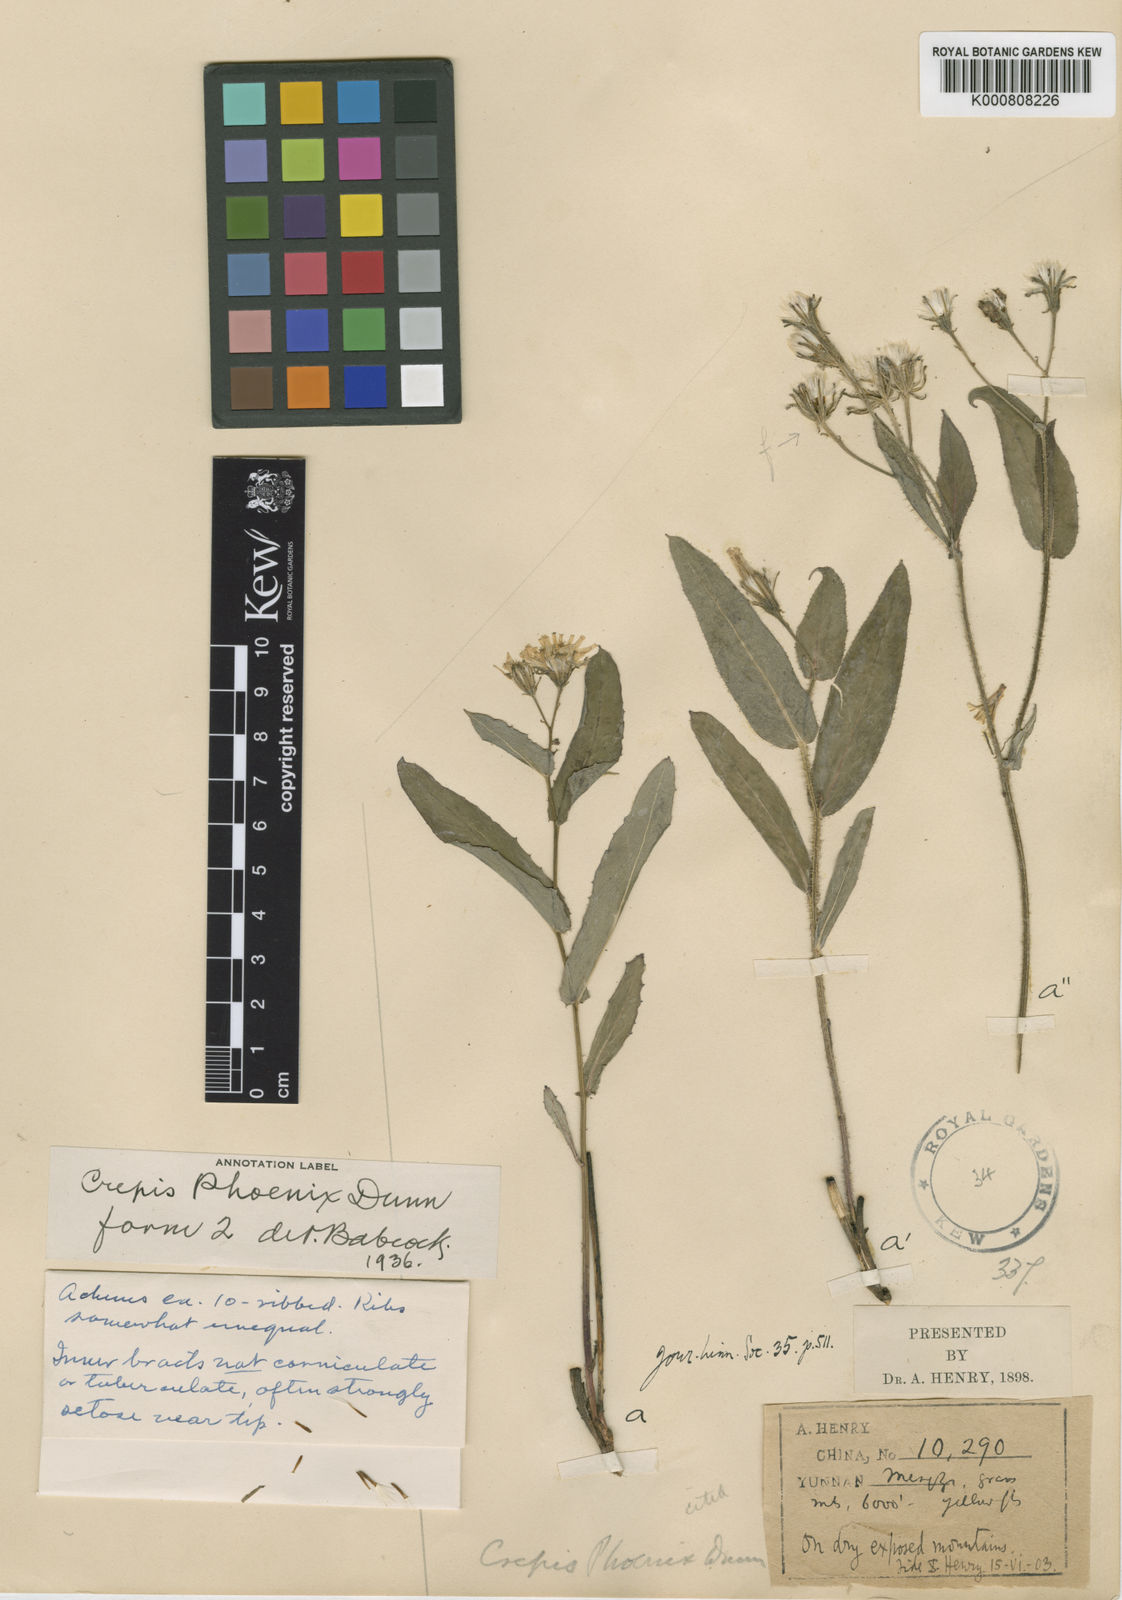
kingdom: Plantae
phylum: Tracheophyta
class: Magnoliopsida
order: Asterales
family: Asteraceae
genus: Crepis
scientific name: Crepis phoenix
